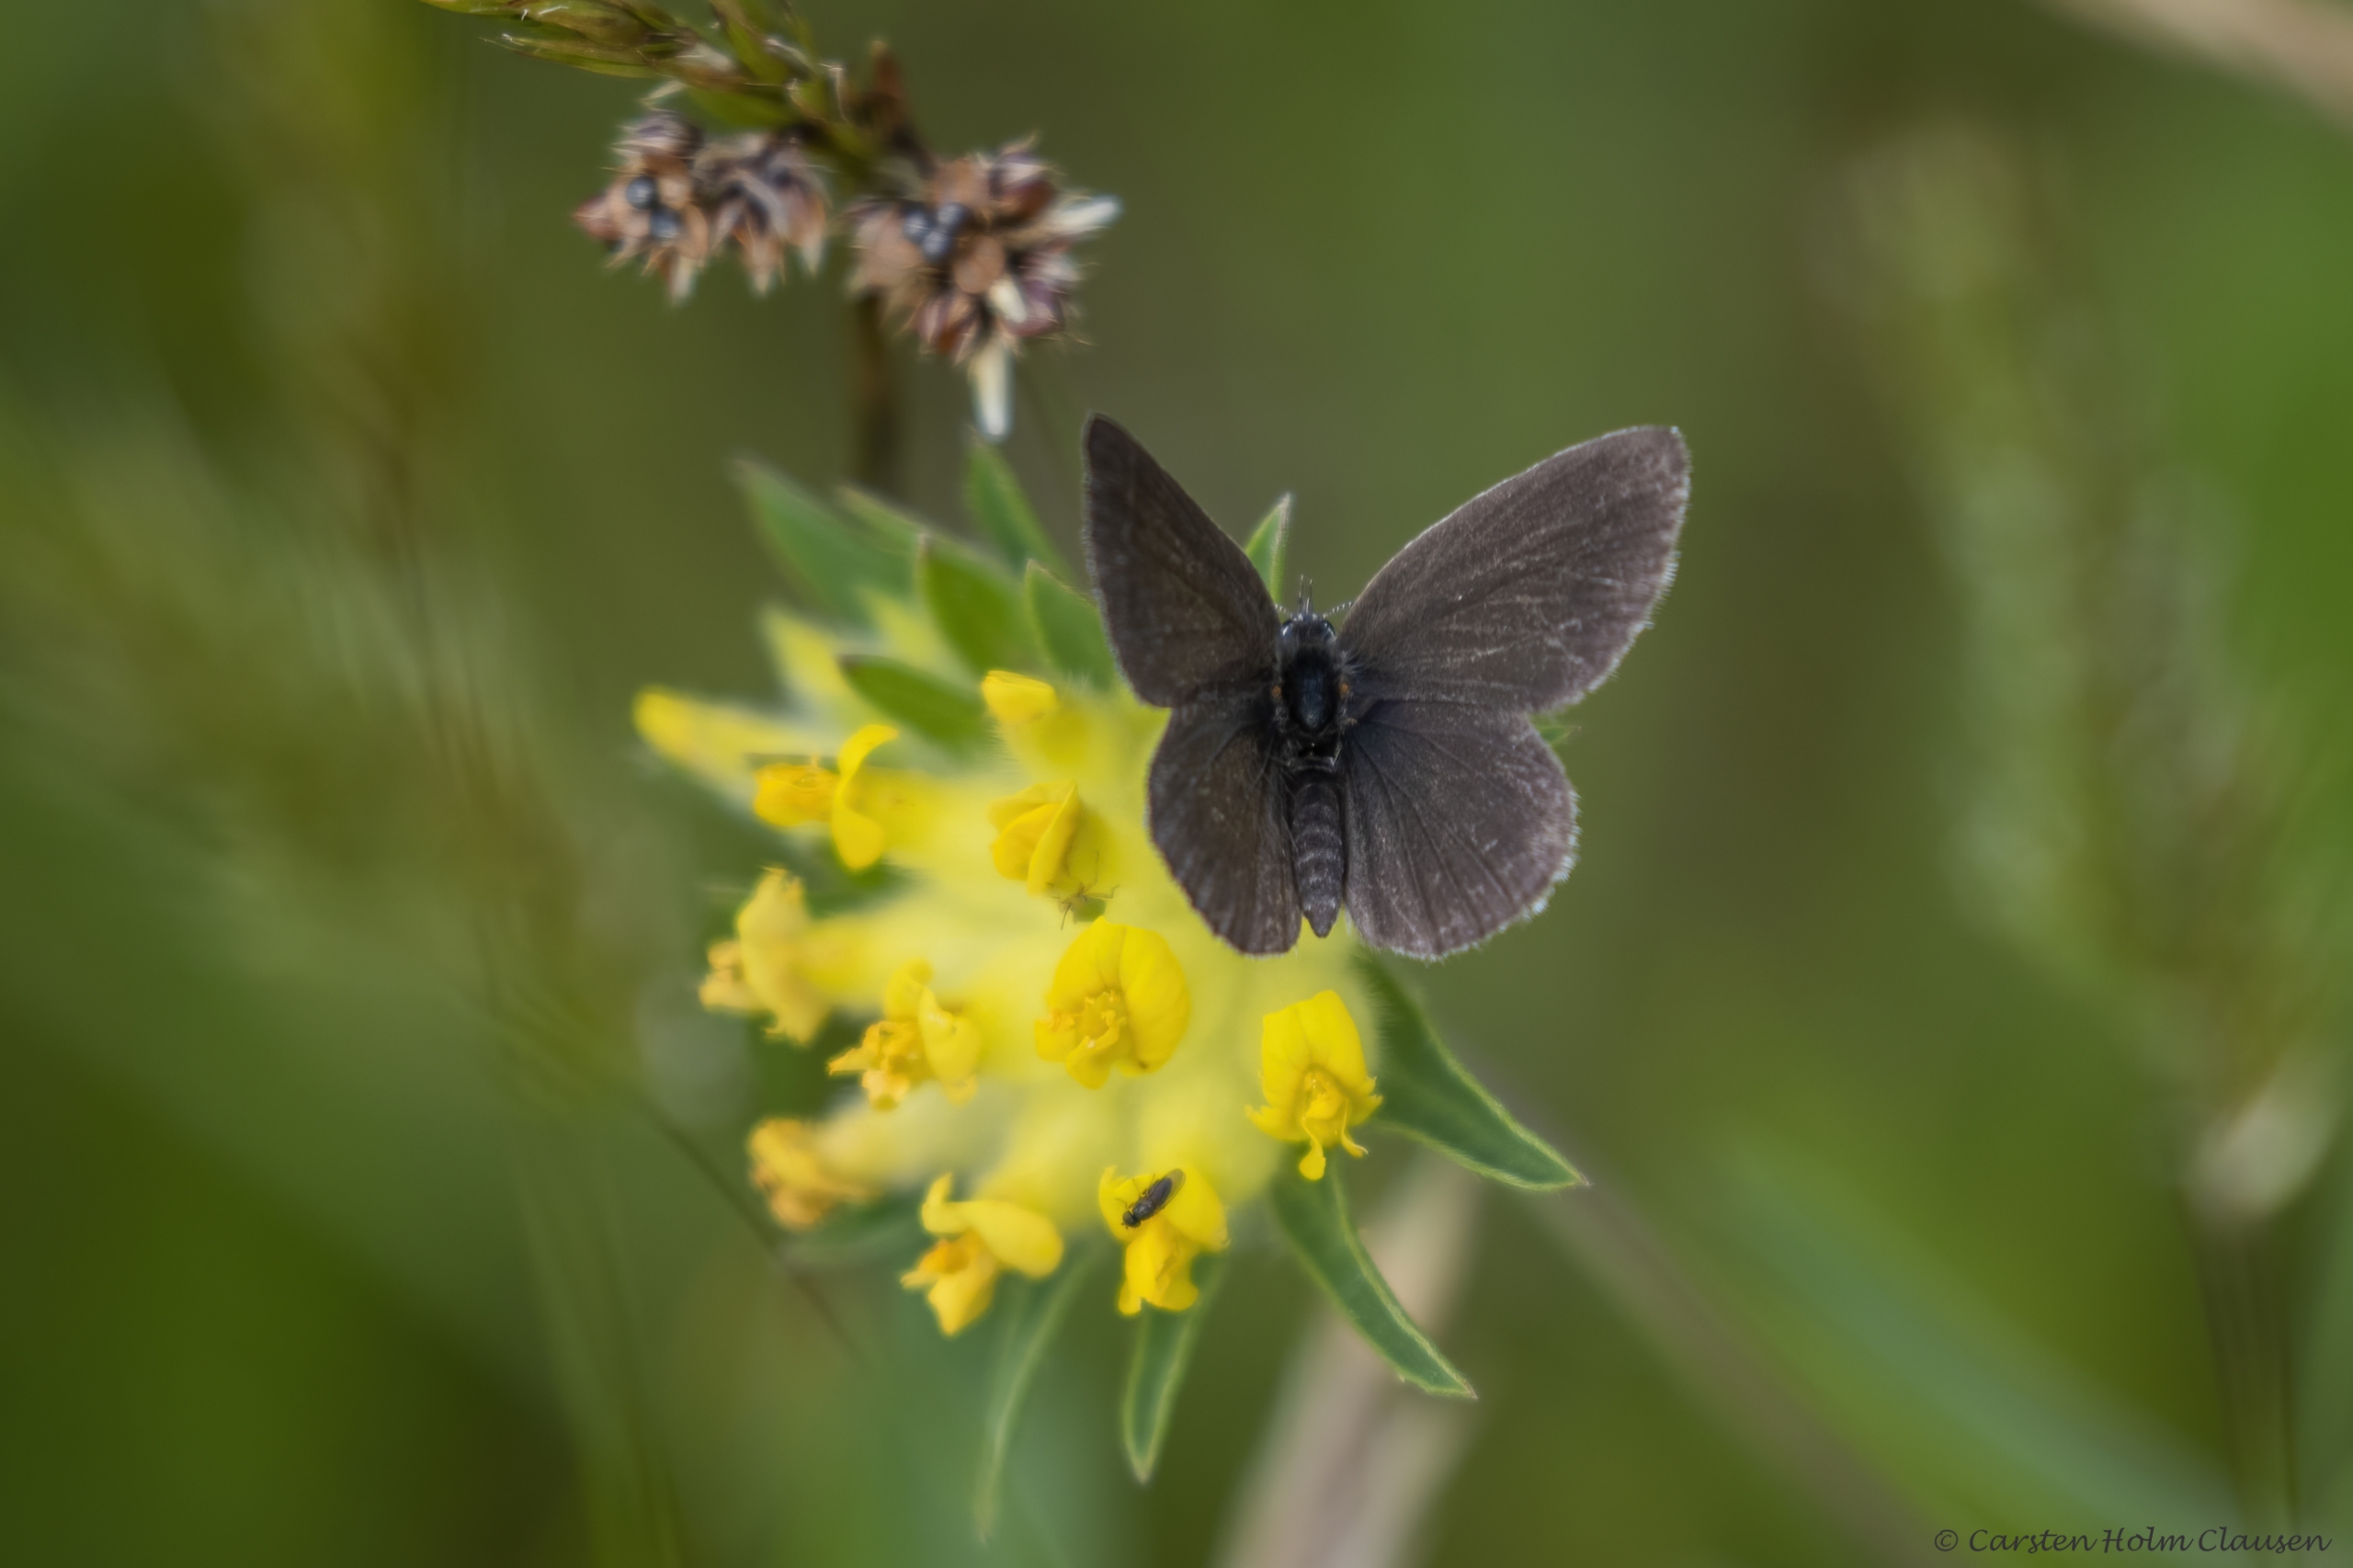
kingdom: Animalia
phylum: Arthropoda
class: Insecta
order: Lepidoptera
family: Lycaenidae
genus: Cupido
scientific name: Cupido minimus
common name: Dværgblåfugl
